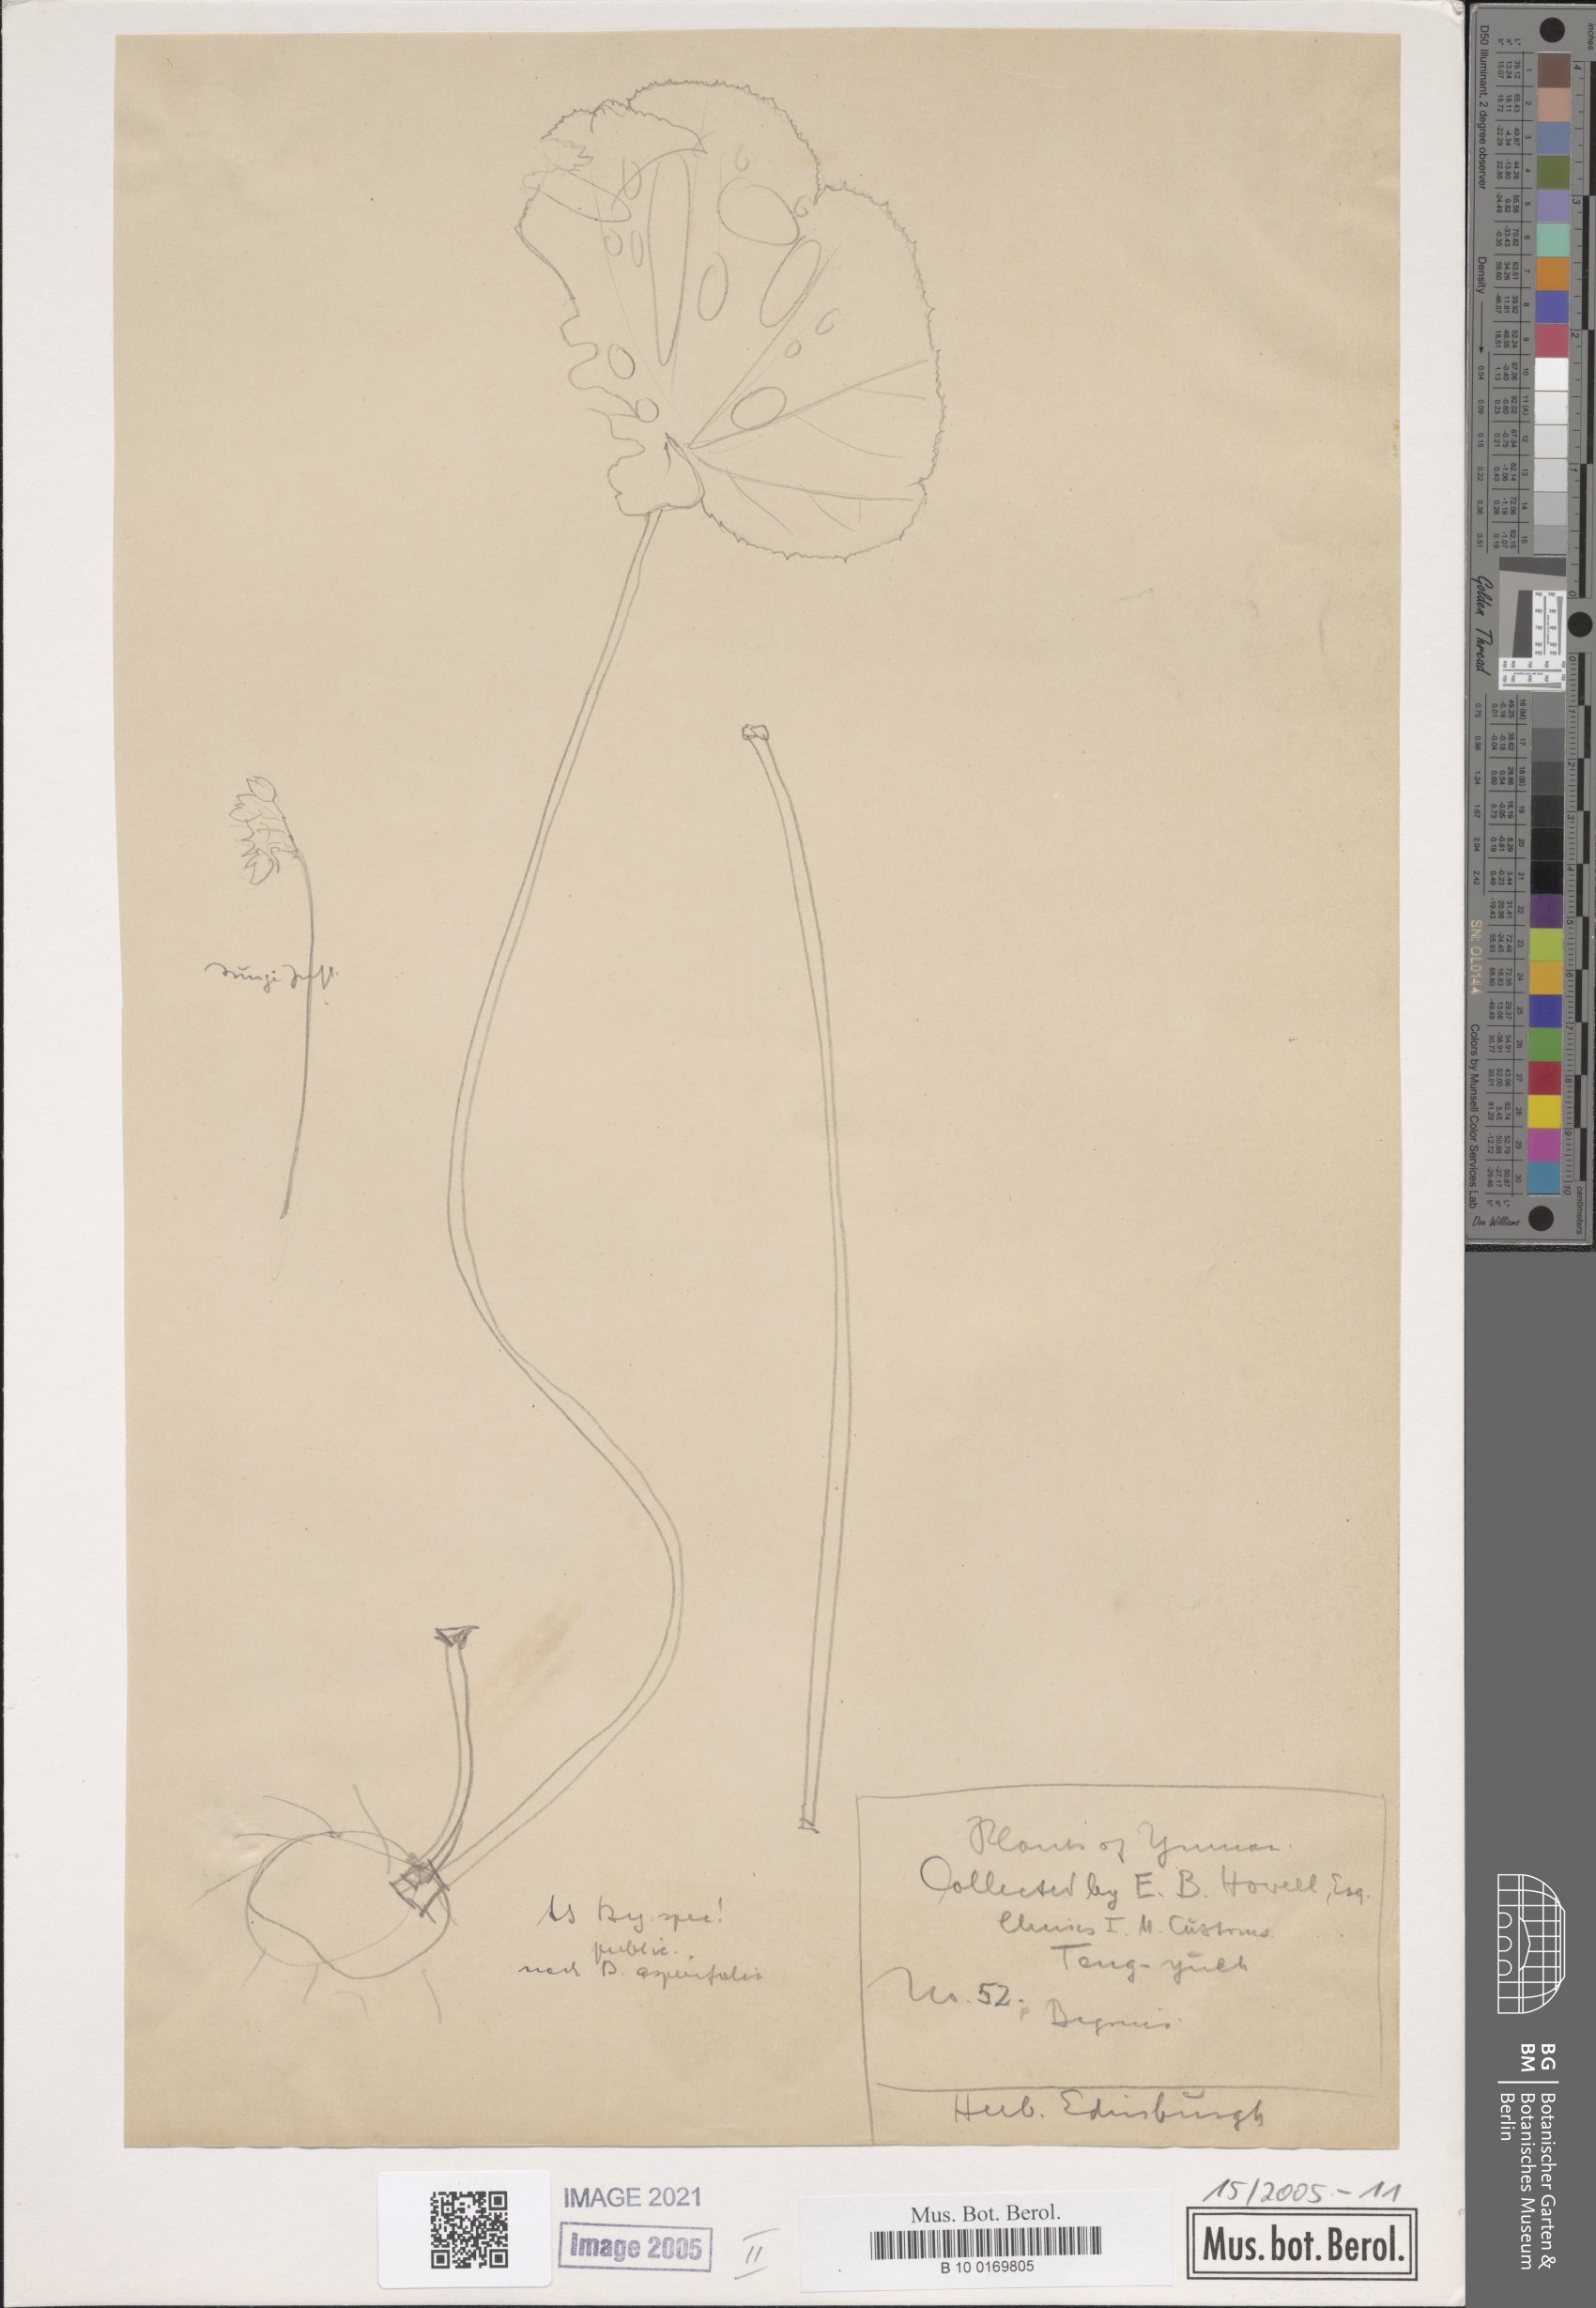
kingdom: Plantae
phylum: Tracheophyta
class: Magnoliopsida
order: Cucurbitales
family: Begoniaceae
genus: Begonia
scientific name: Begonia asperifolia
